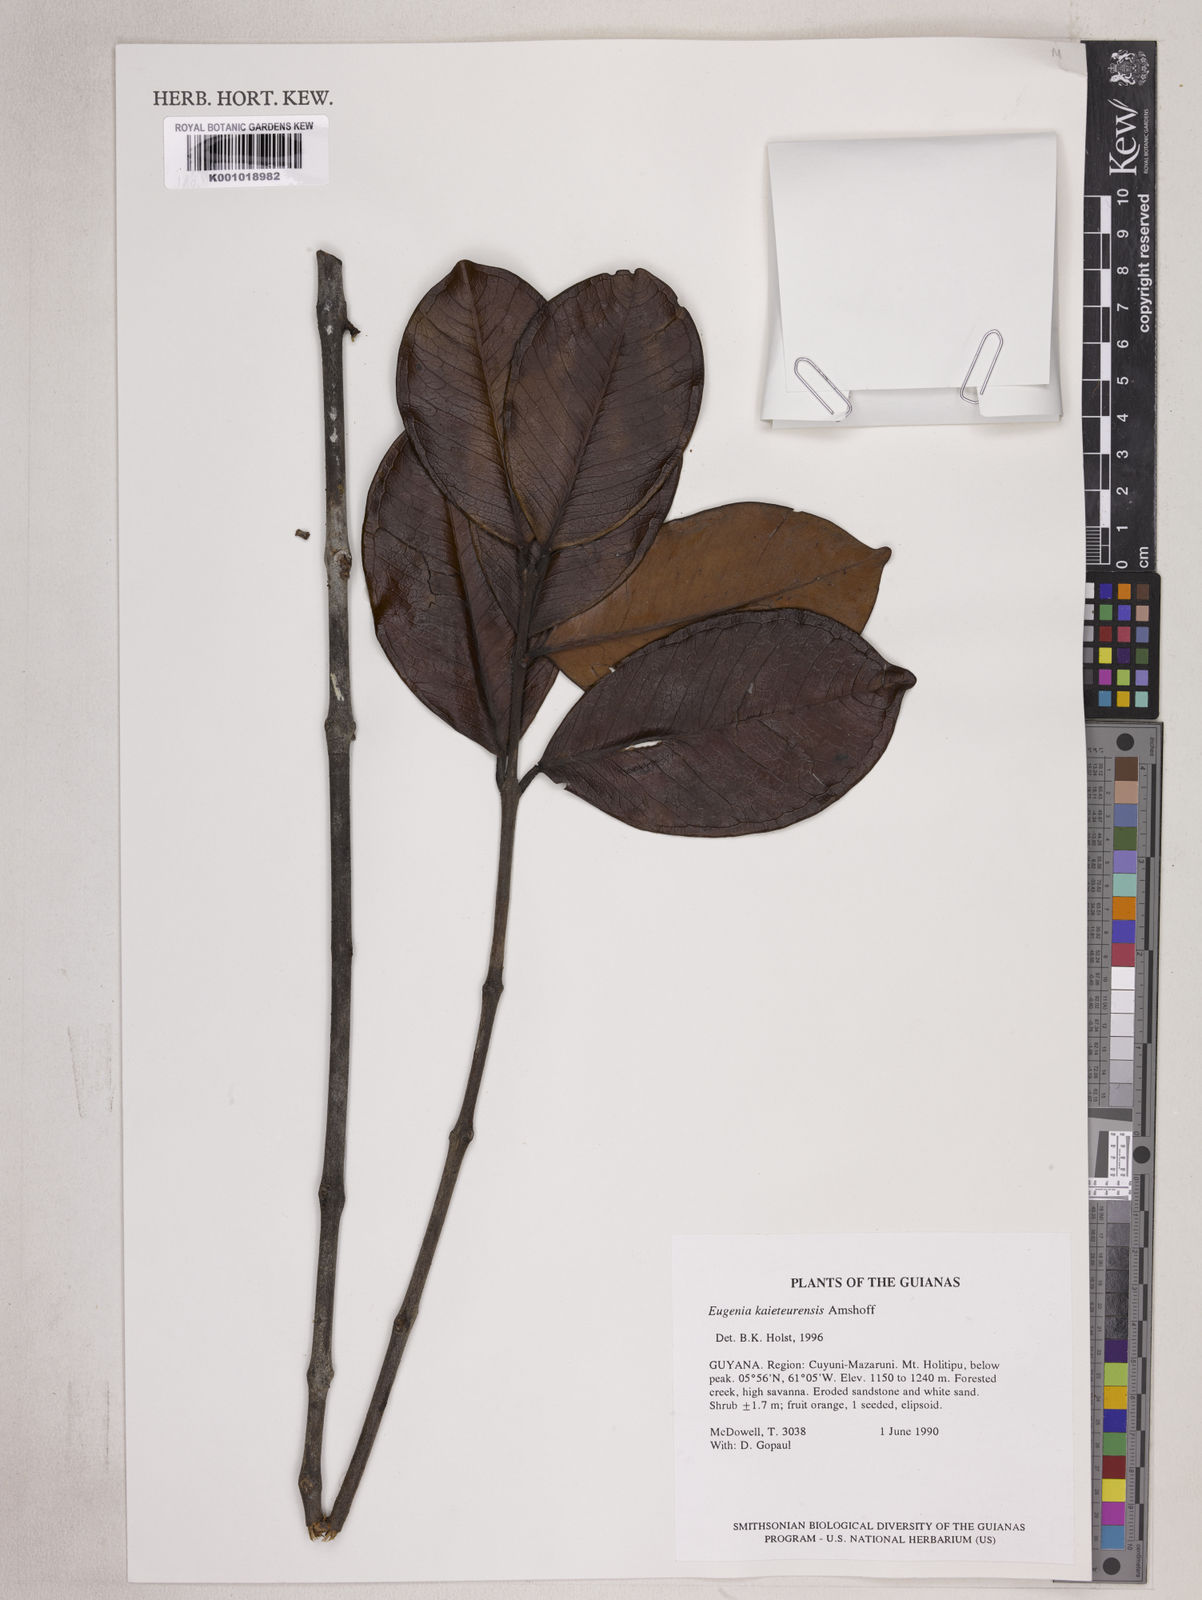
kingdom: Plantae
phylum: Tracheophyta
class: Magnoliopsida
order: Myrtales
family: Myrtaceae
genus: Eugenia
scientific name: Eugenia kaieteurensis
